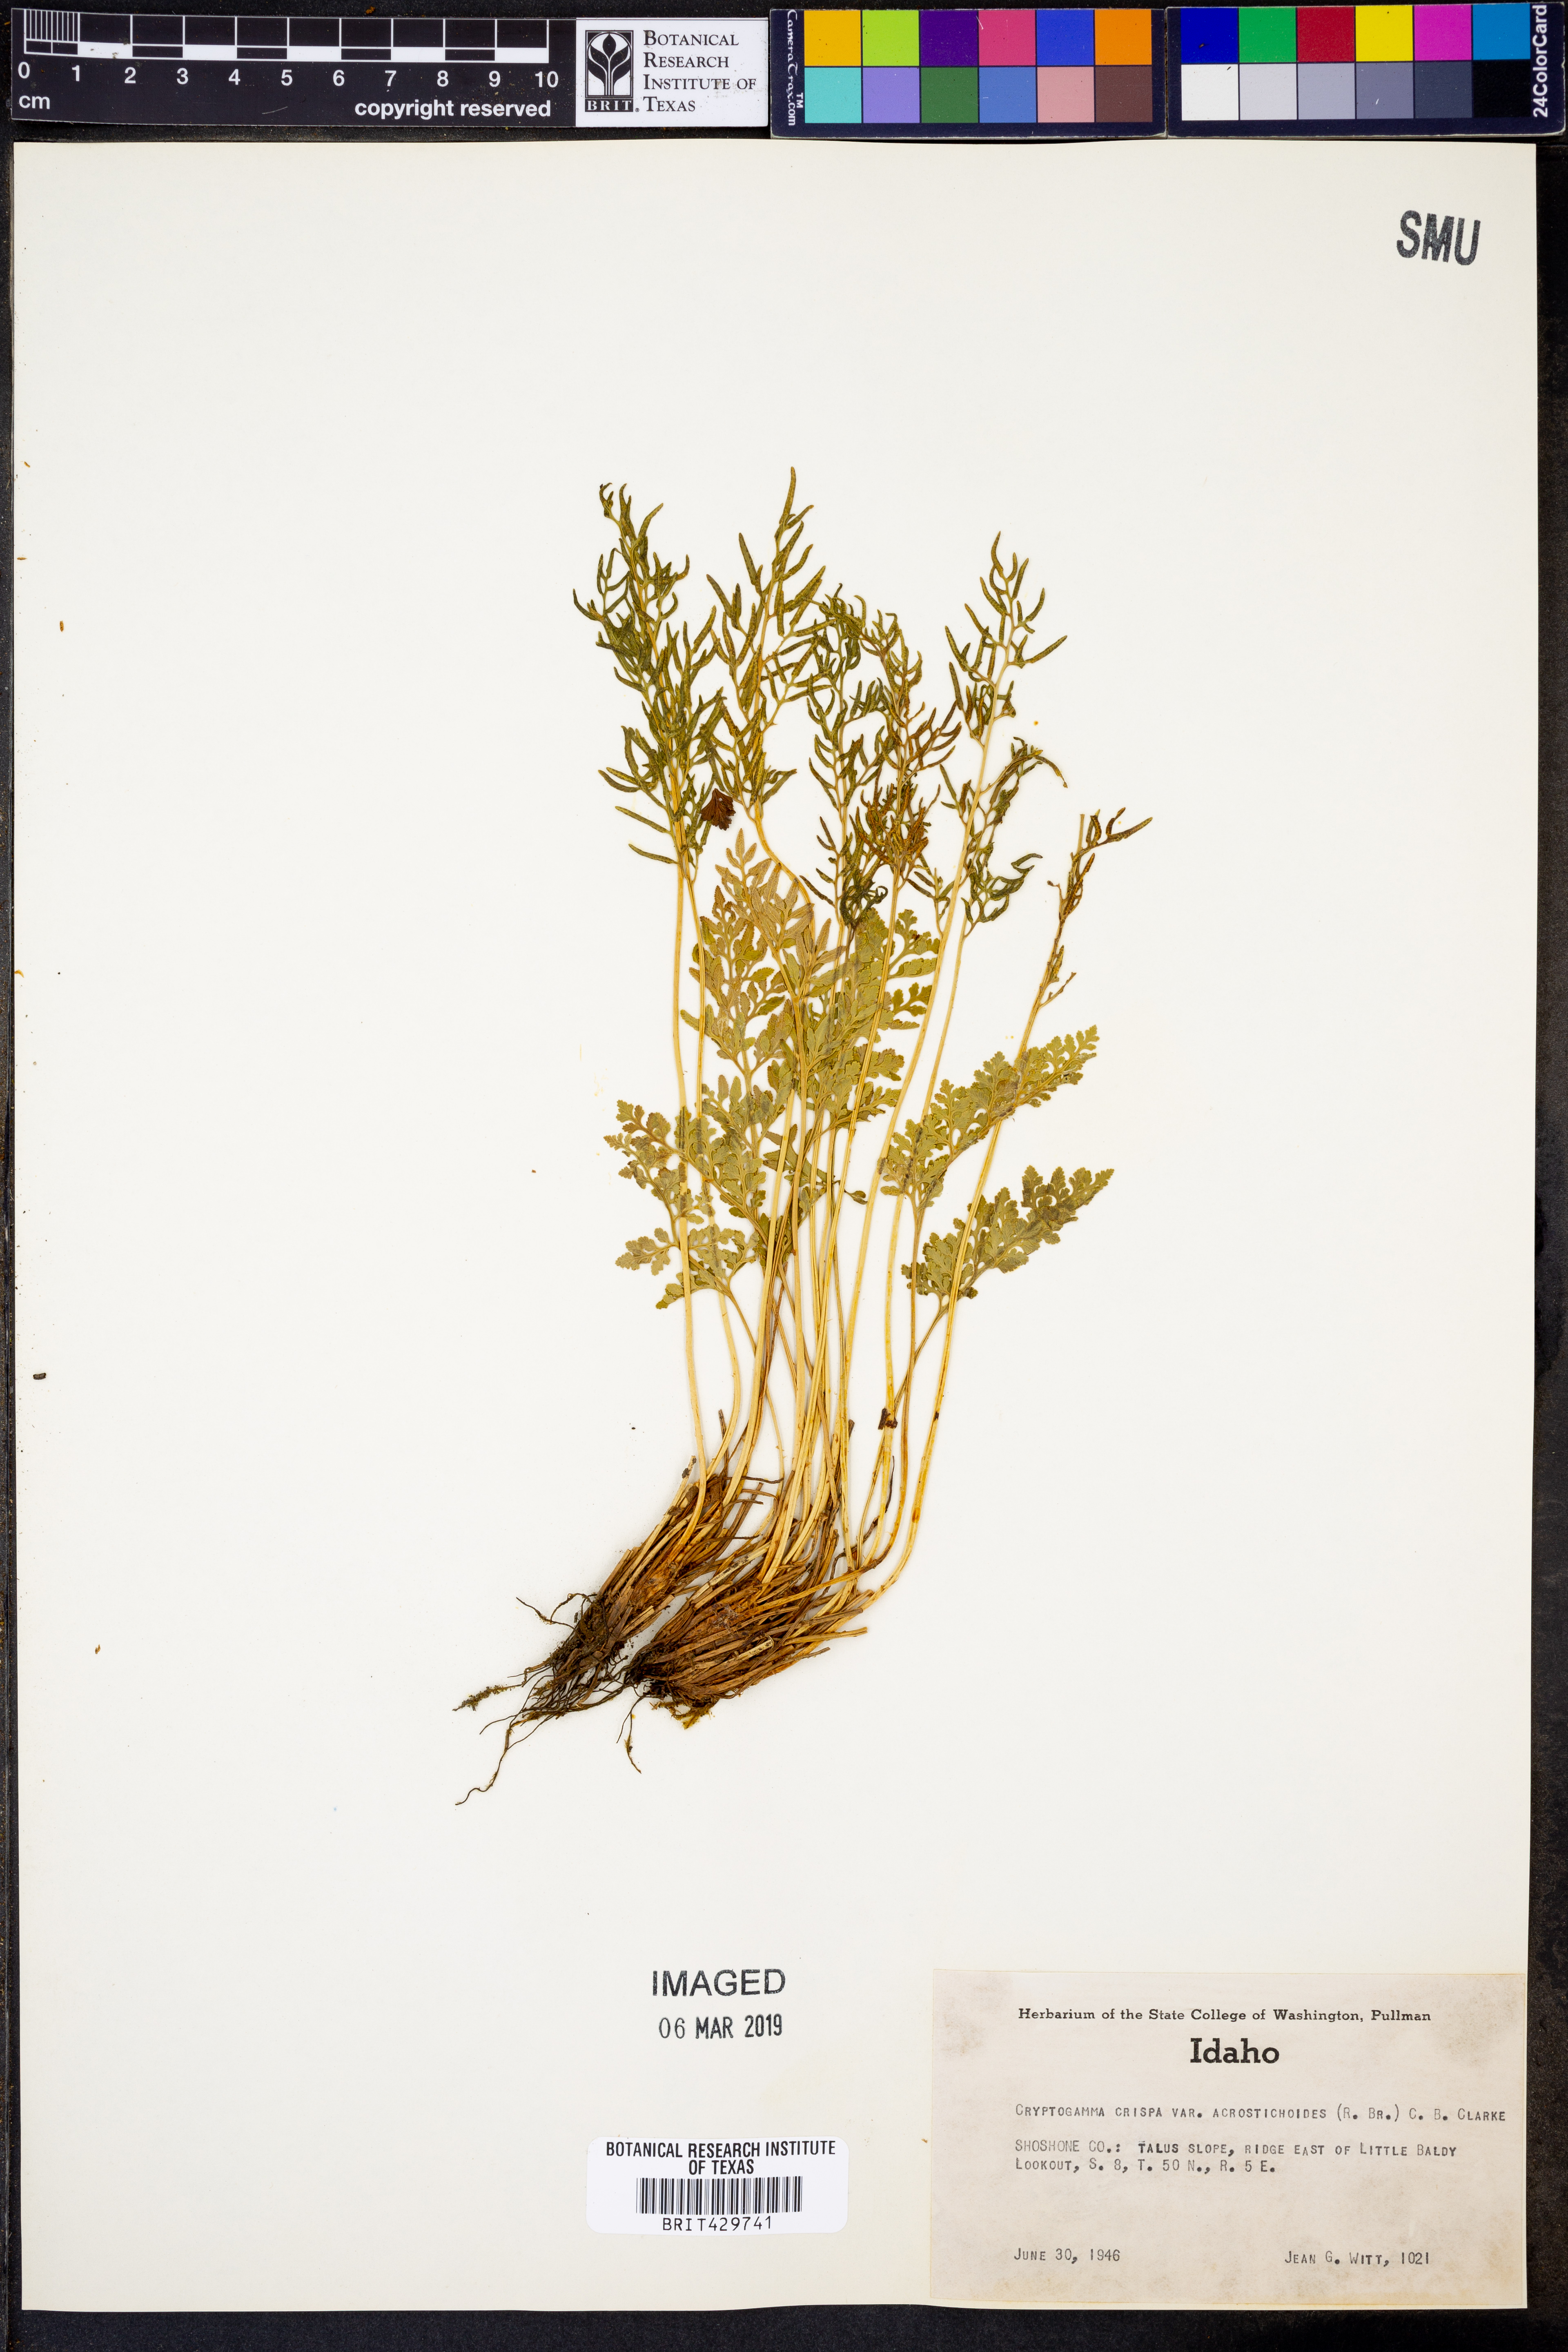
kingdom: Plantae
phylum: Tracheophyta
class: Polypodiopsida
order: Polypodiales
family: Pteridaceae
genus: Cryptogramma
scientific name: Cryptogramma acrostichoides
